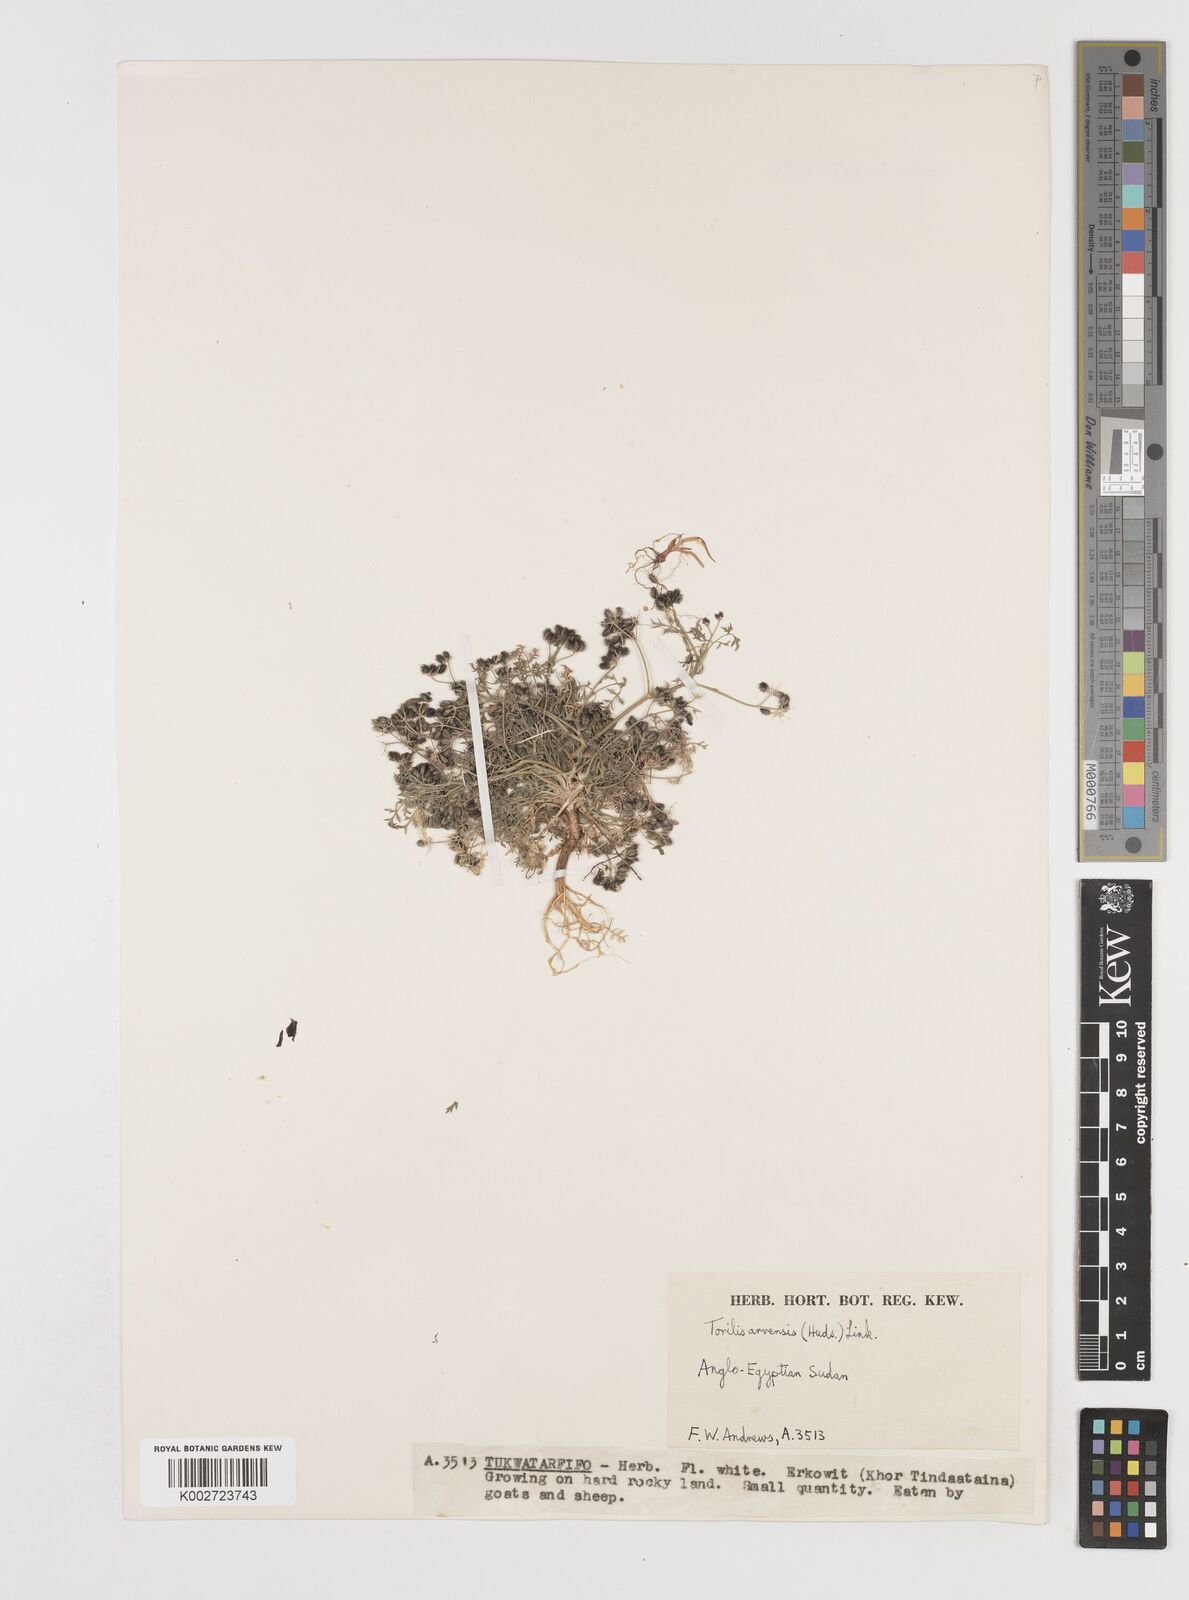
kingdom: Plantae
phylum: Tracheophyta
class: Magnoliopsida
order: Apiales
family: Apiaceae
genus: Torilis
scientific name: Torilis arvensis
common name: Spreading hedge-parsley
